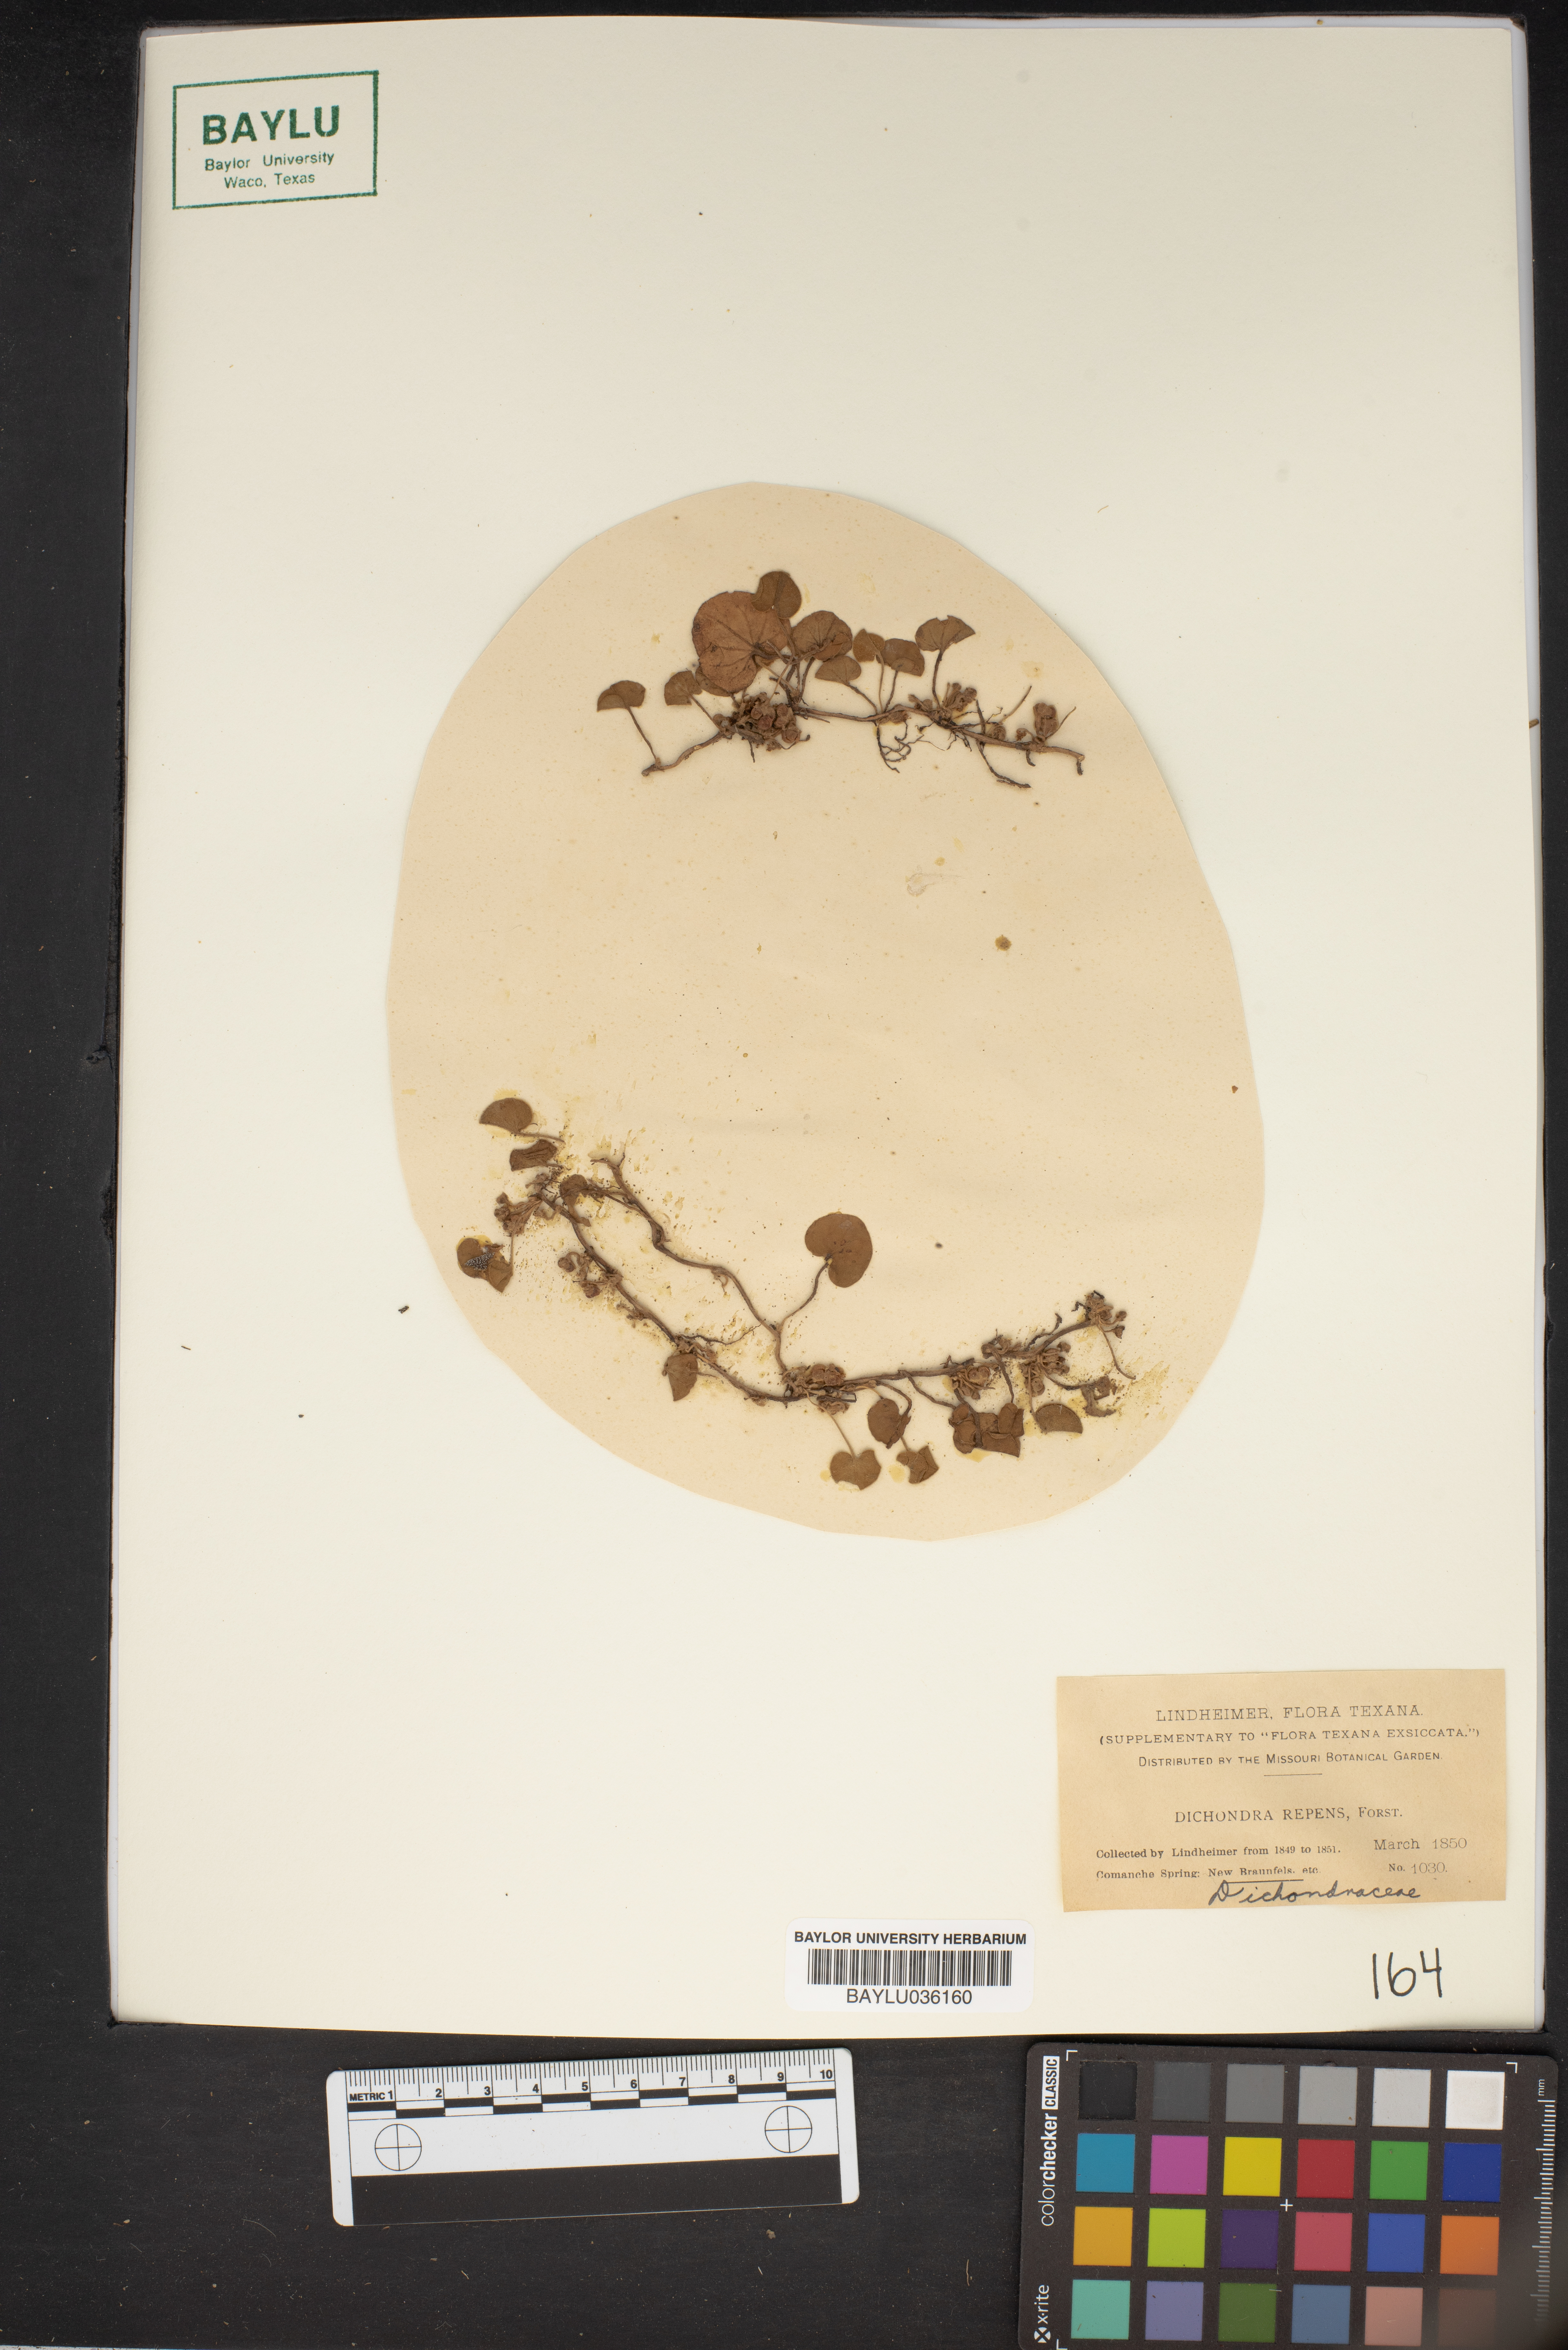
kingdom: Plantae
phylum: Tracheophyta
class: Magnoliopsida
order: Solanales
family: Convolvulaceae
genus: Dichondra
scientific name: Dichondra repens
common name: Kidneyweed
